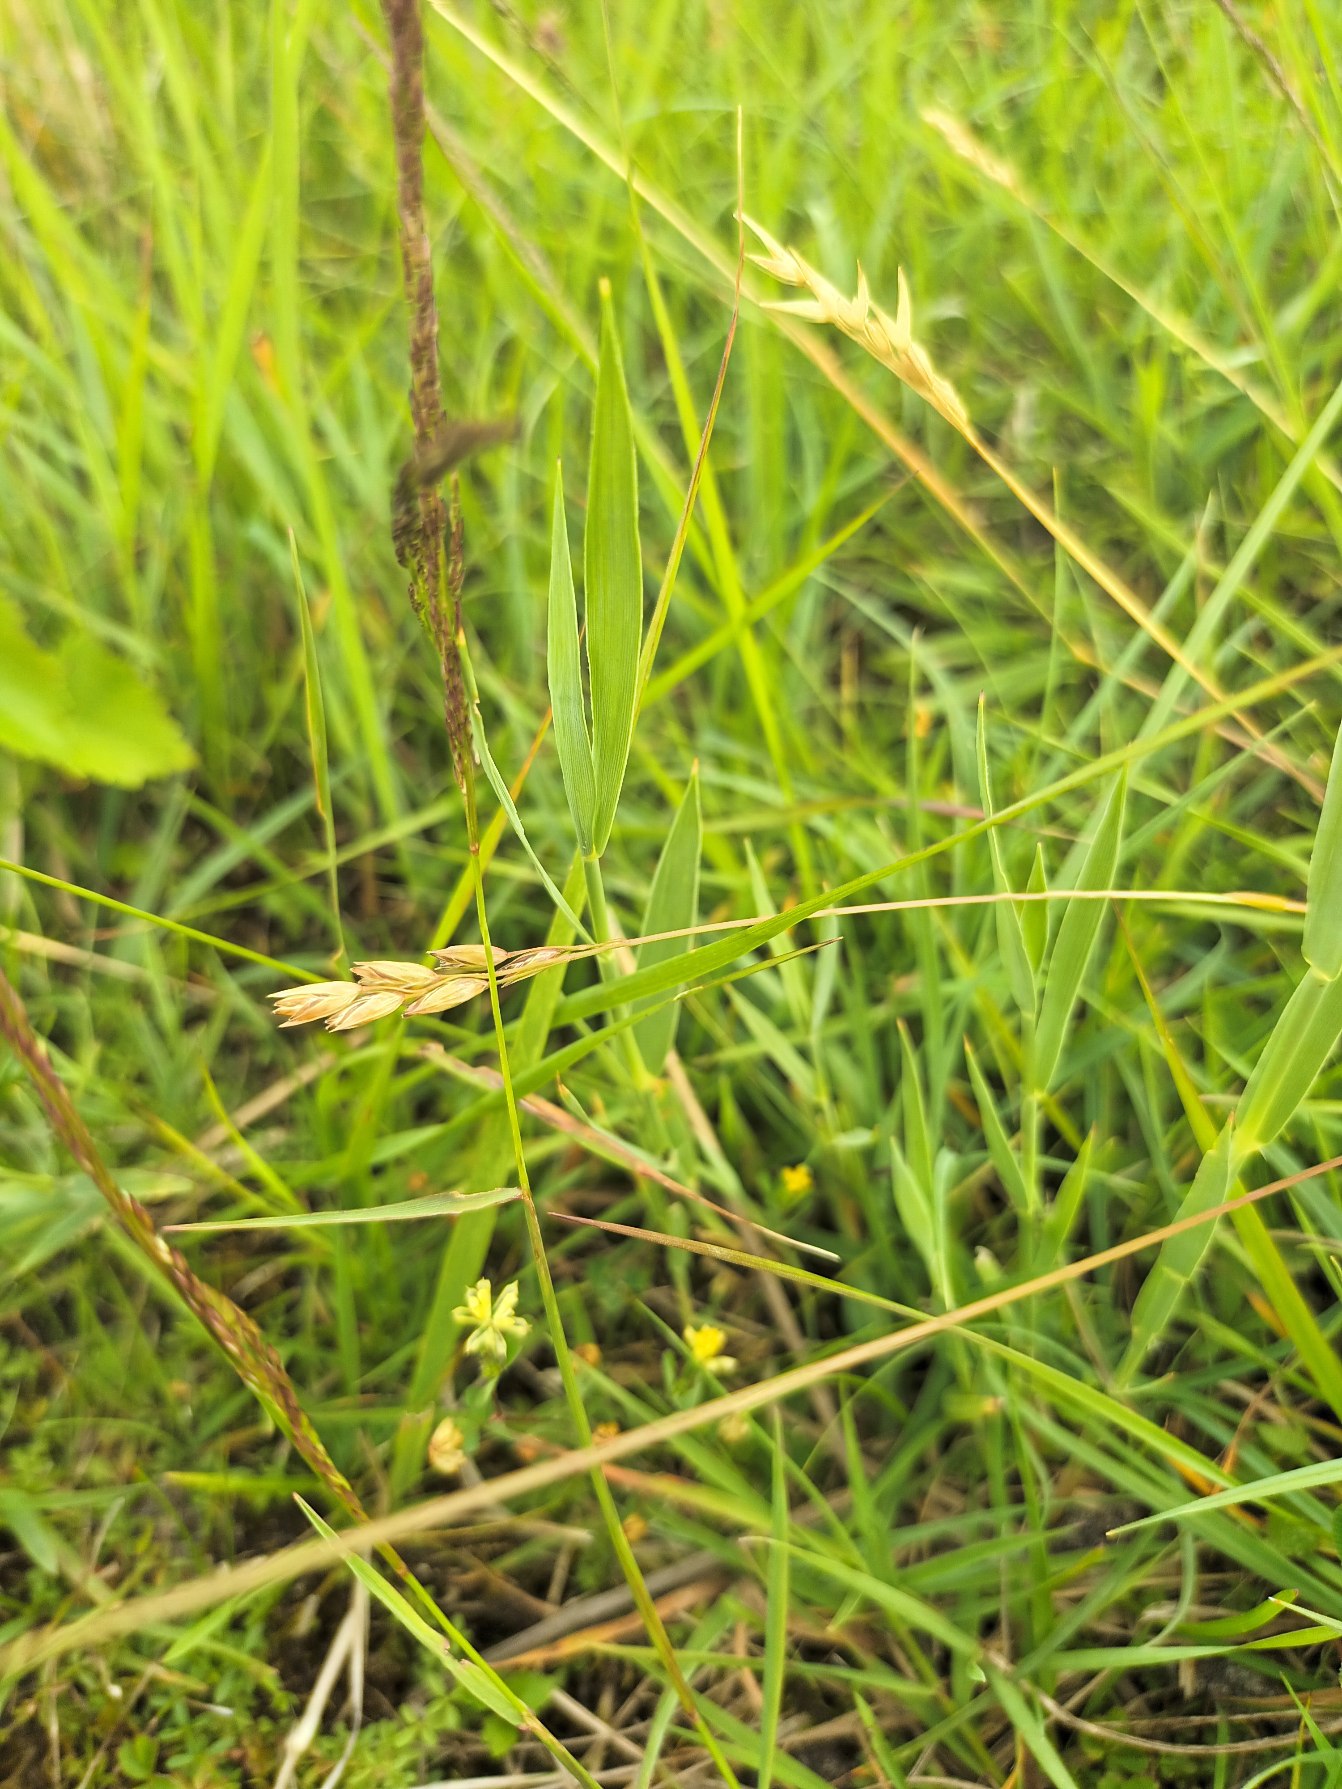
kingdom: Plantae
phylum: Tracheophyta
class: Liliopsida
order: Poales
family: Poaceae
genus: Danthonia
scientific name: Danthonia decumbens
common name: Tandbælg
